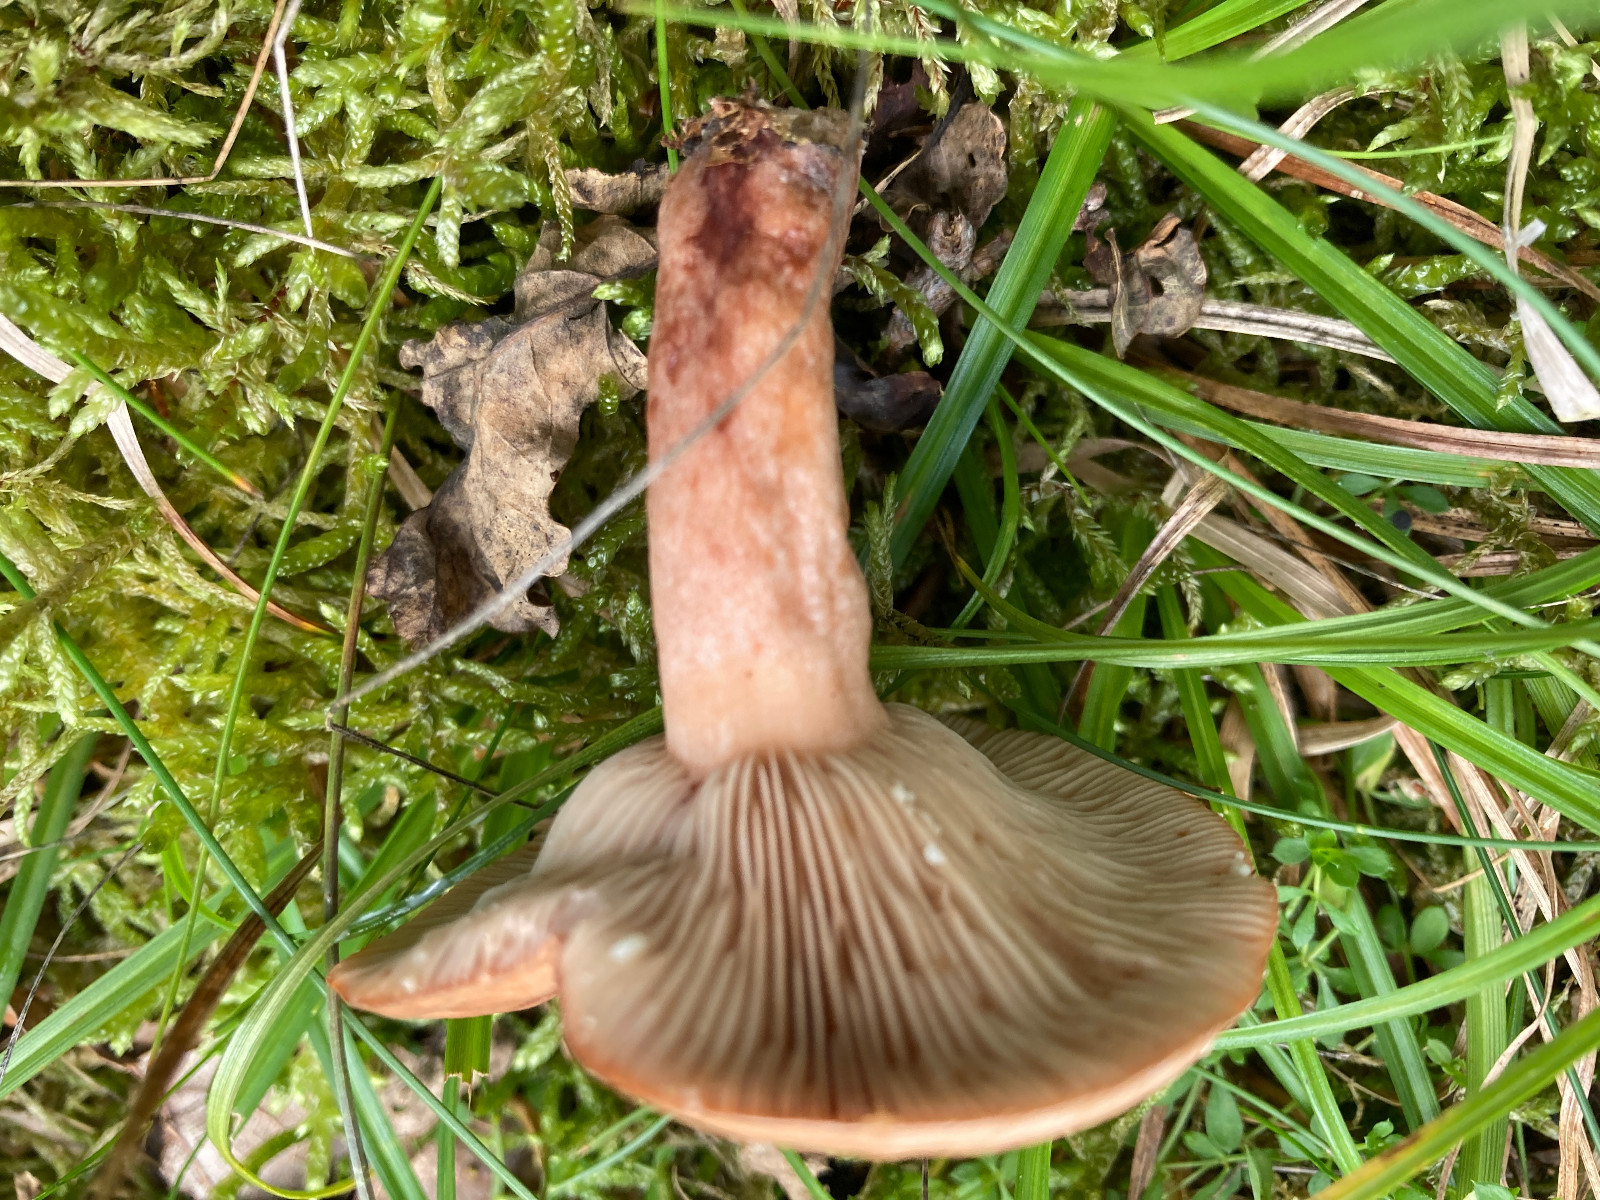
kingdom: Fungi
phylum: Basidiomycota
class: Agaricomycetes
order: Russulales
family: Russulaceae
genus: Lactarius
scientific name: Lactarius quietus
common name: ege-mælkehat
